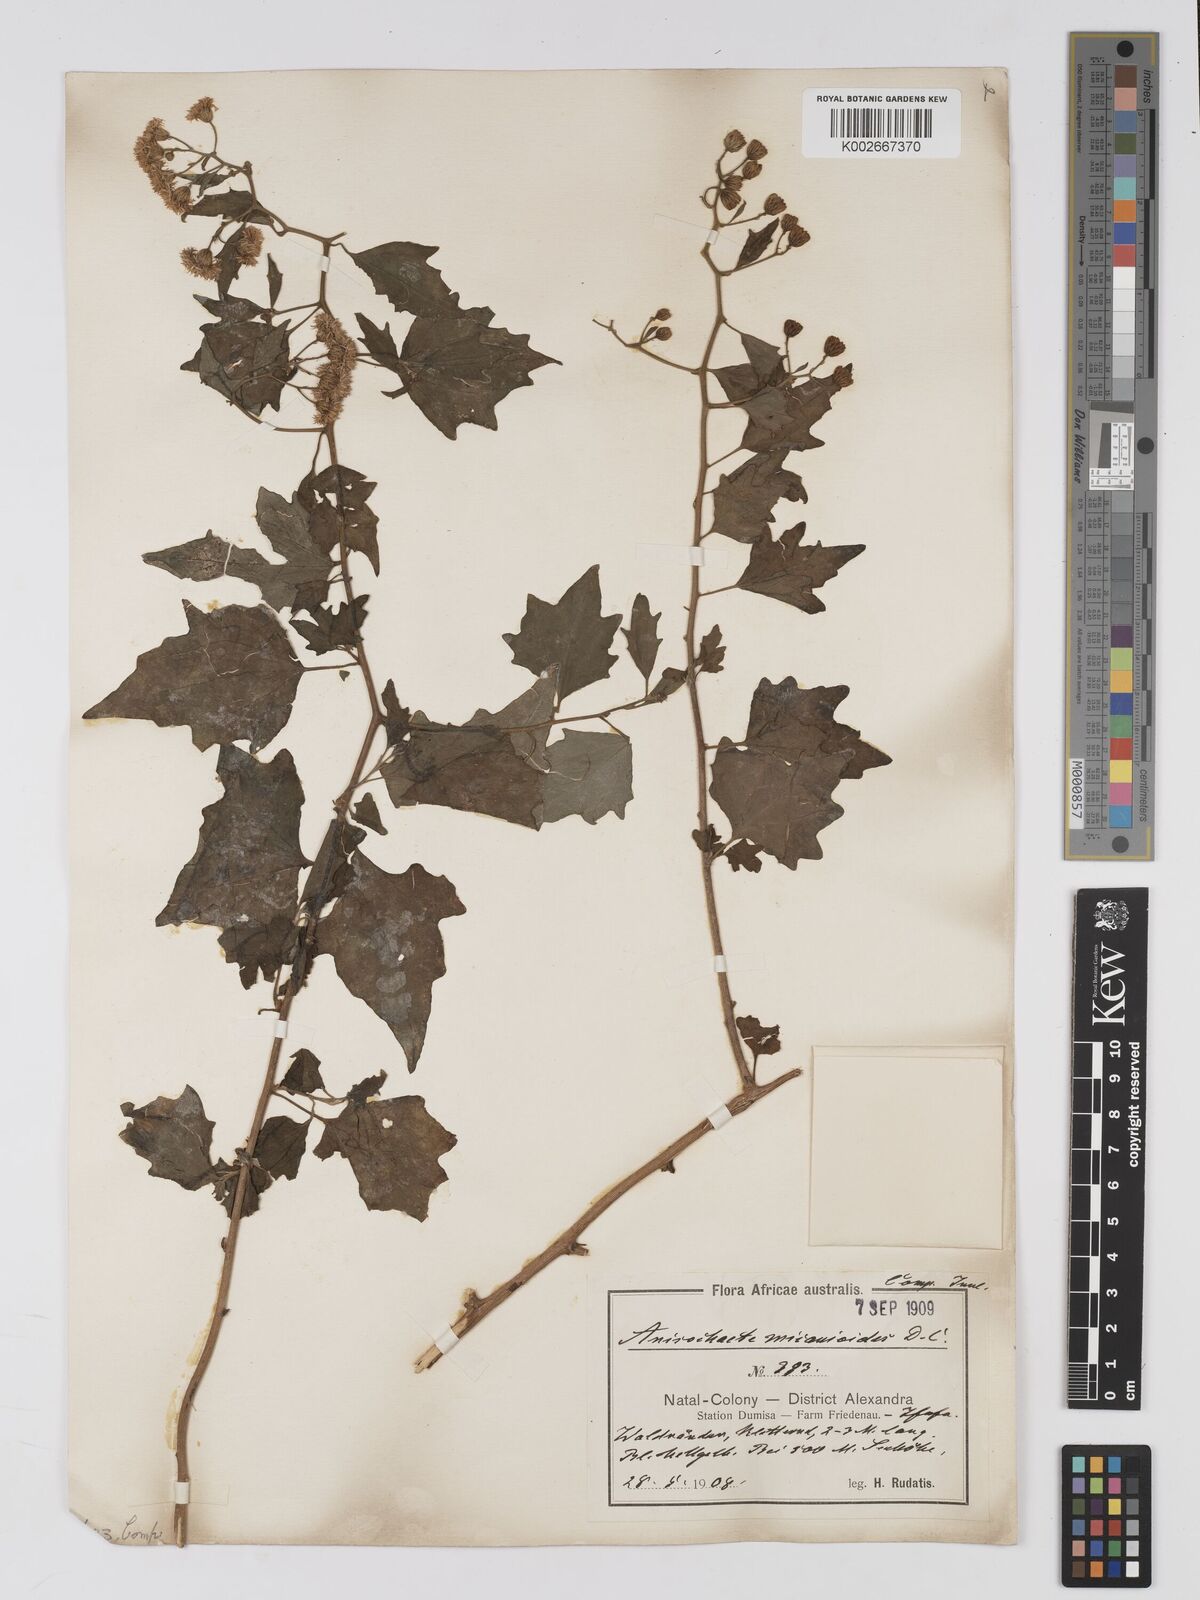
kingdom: Plantae
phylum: Tracheophyta
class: Magnoliopsida
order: Asterales
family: Asteraceae
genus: Anisochaeta
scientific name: Anisochaeta mikanioides
